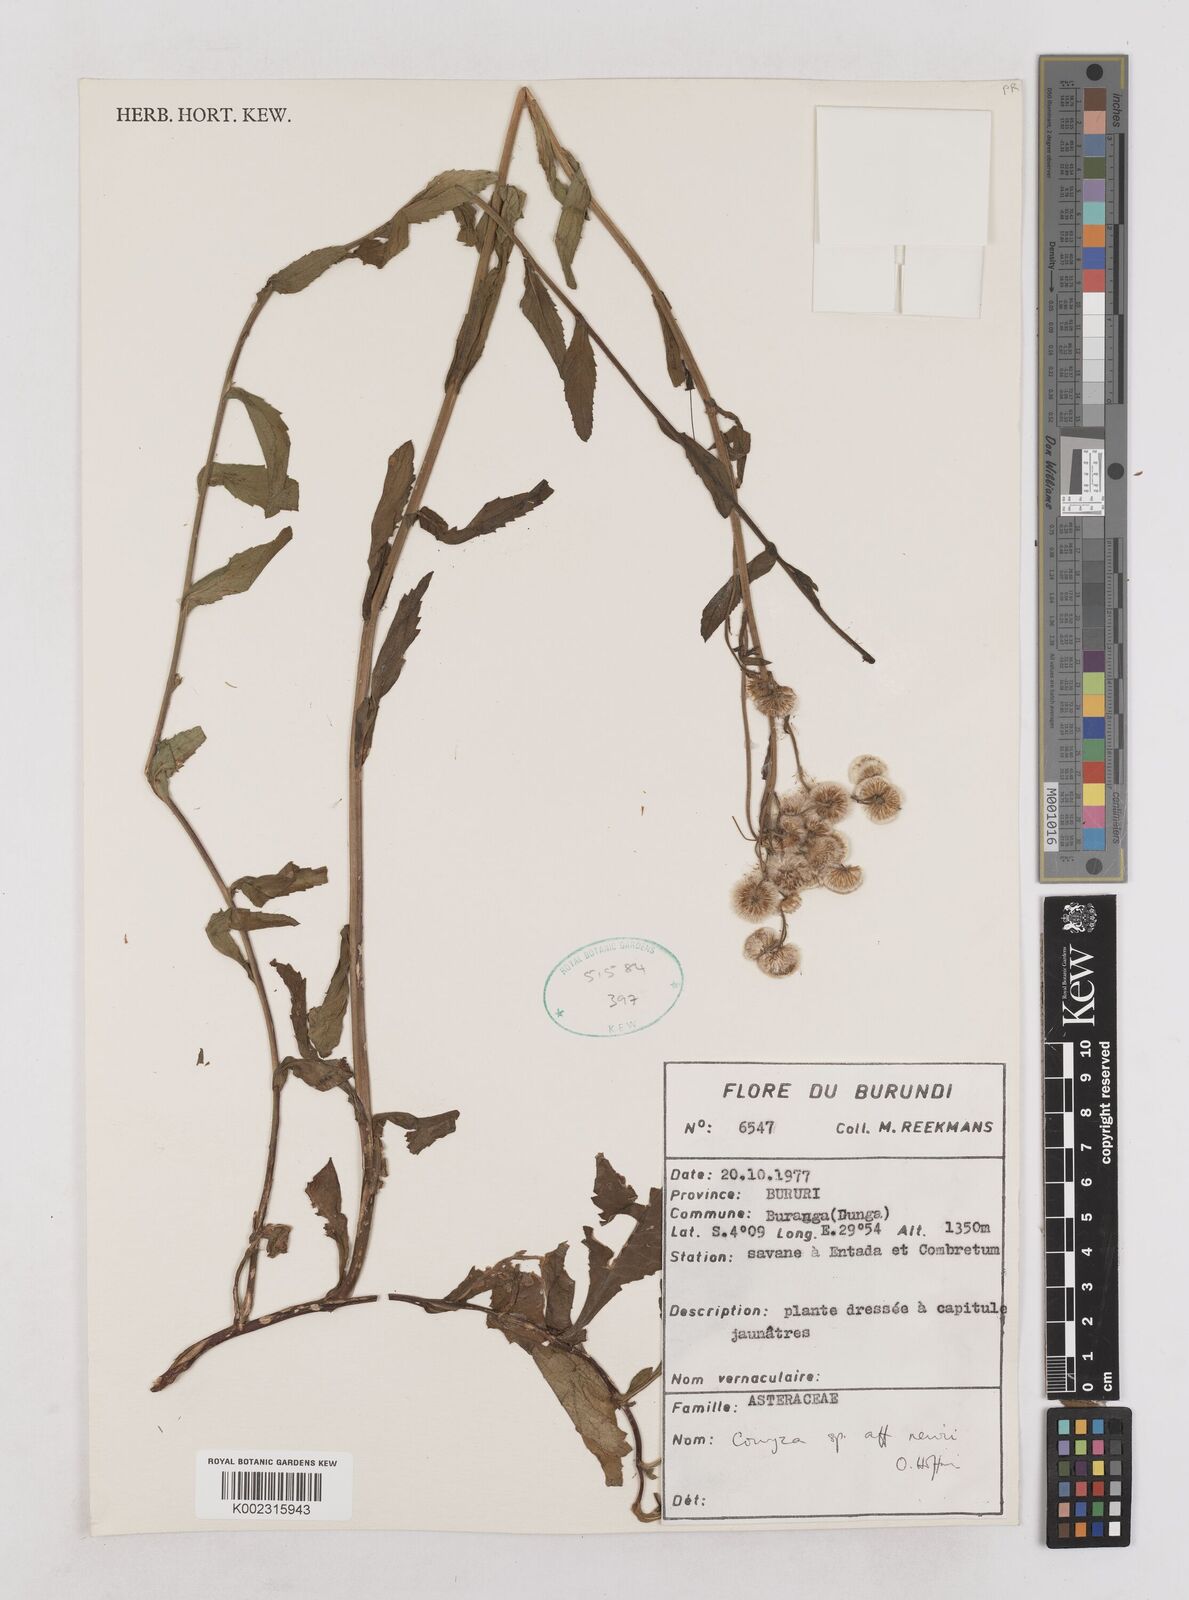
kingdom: Plantae
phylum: Tracheophyta
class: Magnoliopsida
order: Asterales
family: Asteraceae
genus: Conyza
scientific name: Conyza newii
